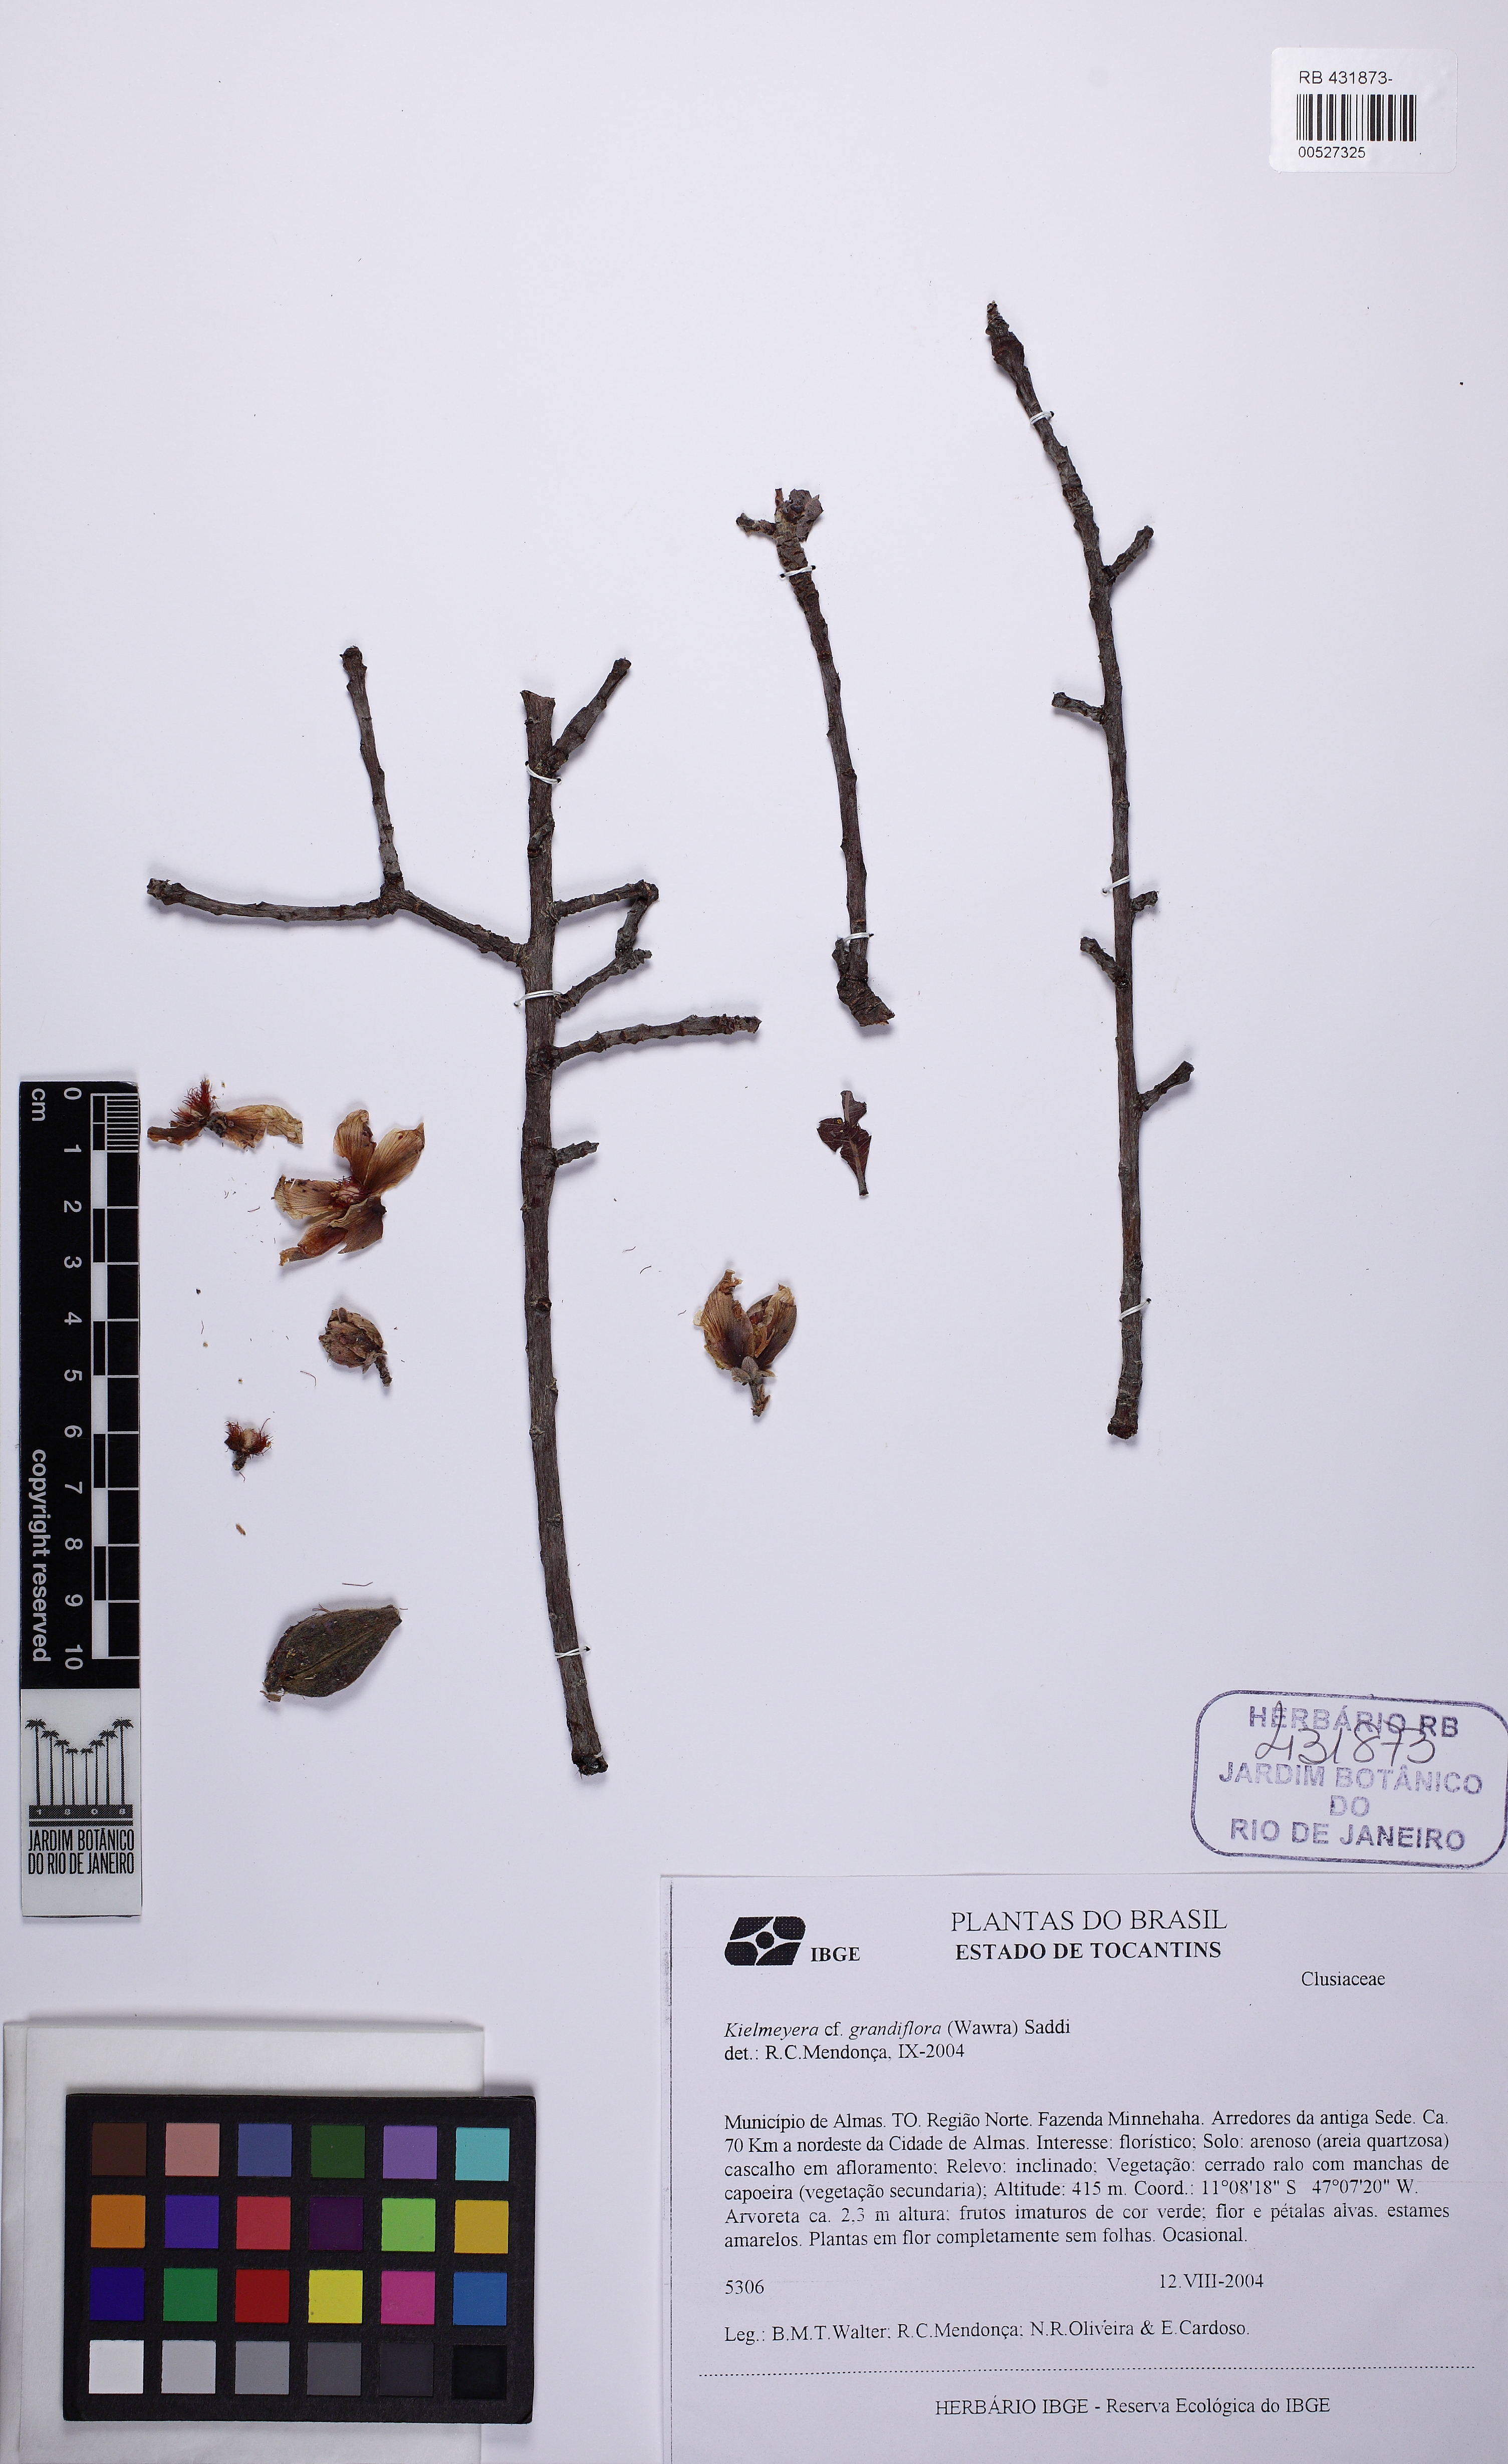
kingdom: Plantae
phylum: Tracheophyta
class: Magnoliopsida
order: Malpighiales
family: Calophyllaceae
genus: Kielmeyera
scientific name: Kielmeyera rubriflora
